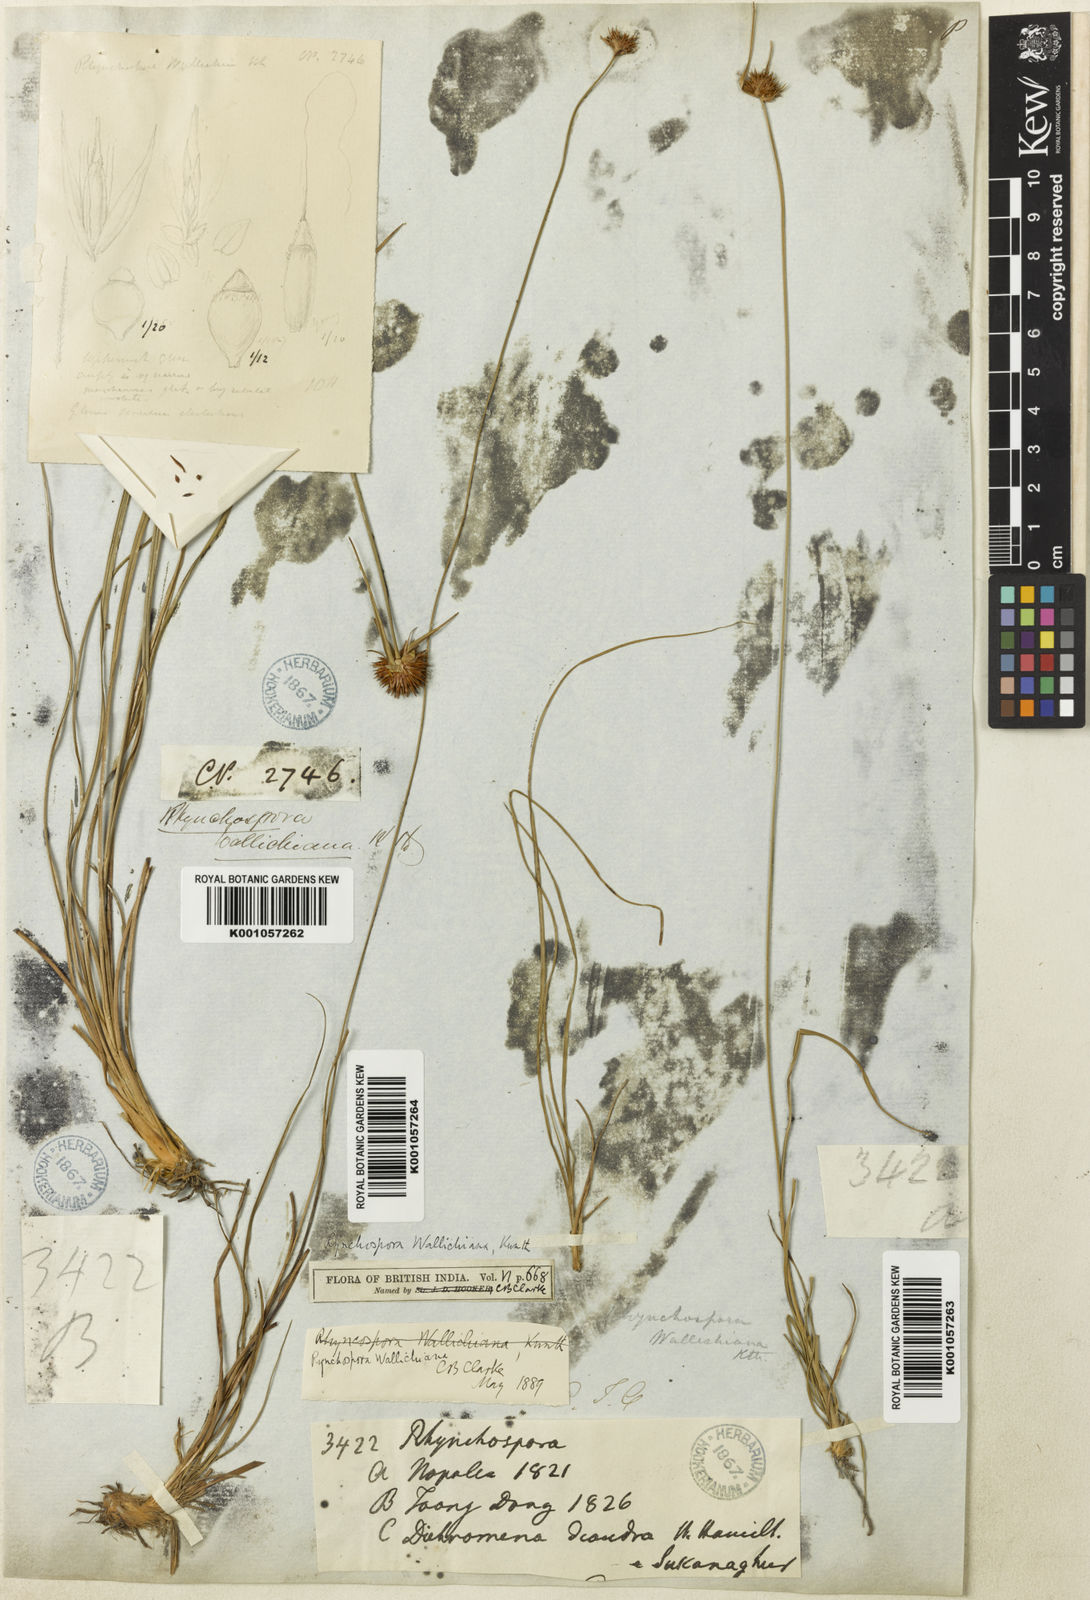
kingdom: Plantae
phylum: Tracheophyta
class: Liliopsida
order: Poales
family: Cyperaceae
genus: Rhynchospora
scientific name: Rhynchospora rubra
